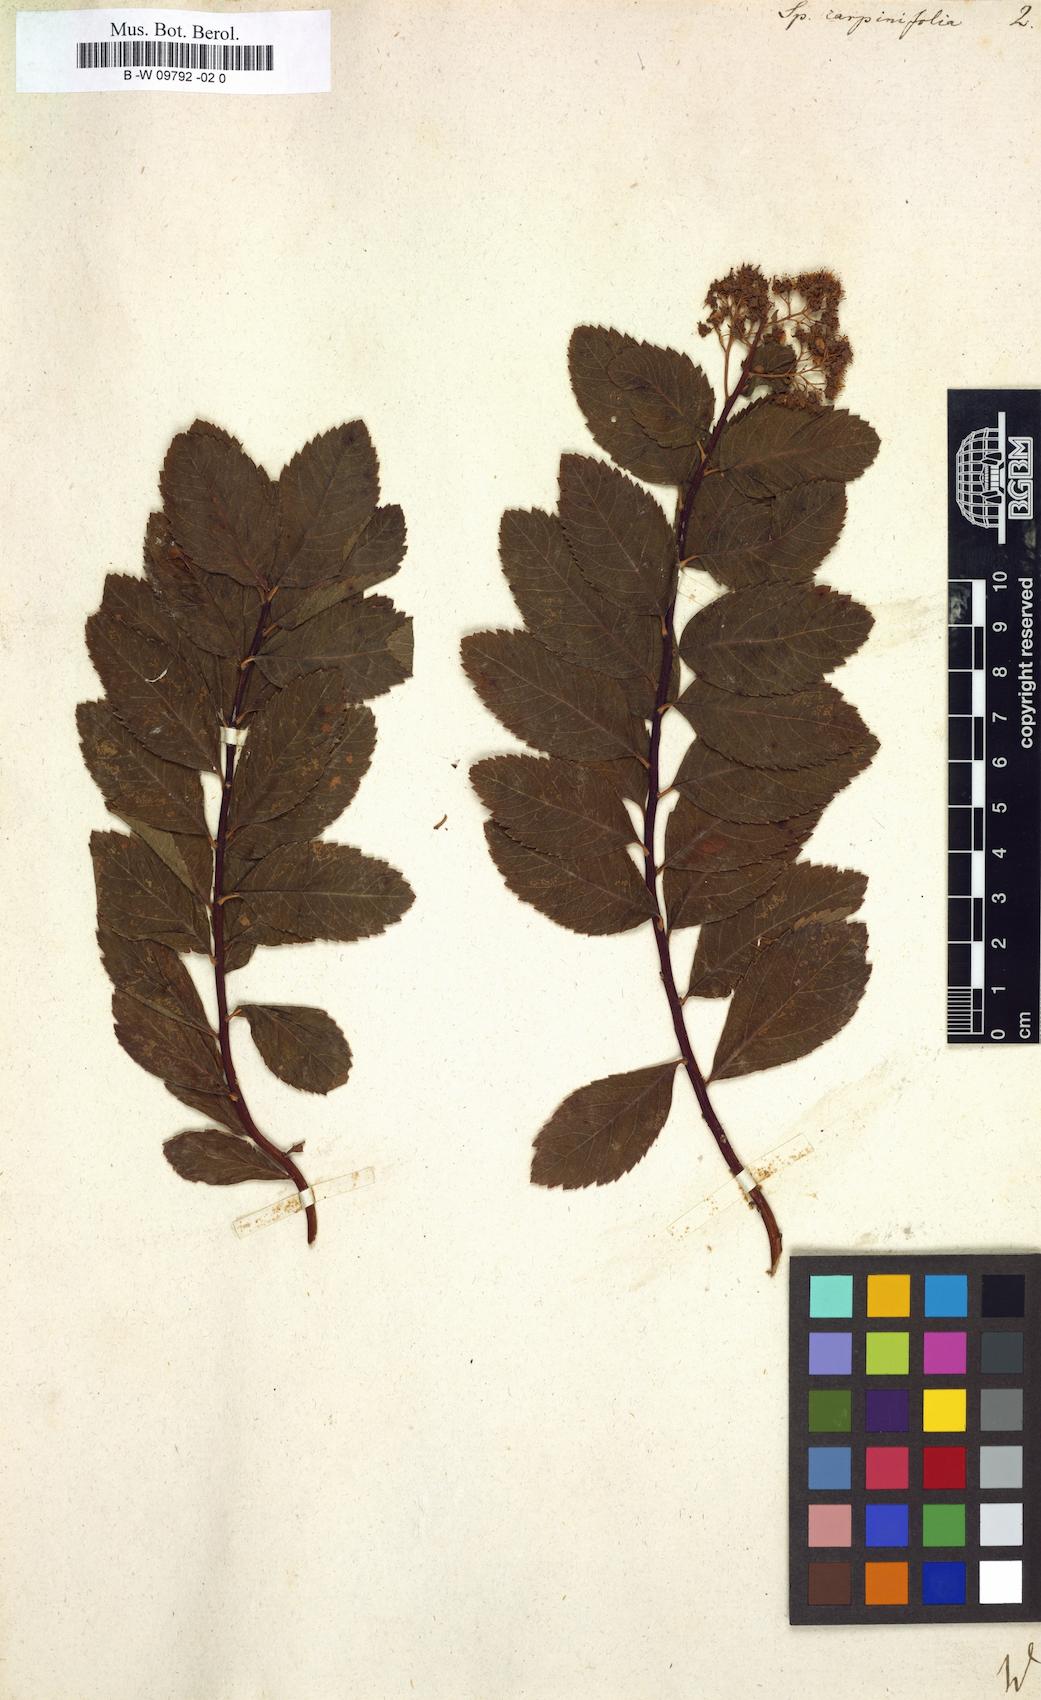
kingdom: Plantae
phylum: Tracheophyta
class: Magnoliopsida
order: Rosales
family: Rosaceae
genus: Spiraea
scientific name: Spiraea
